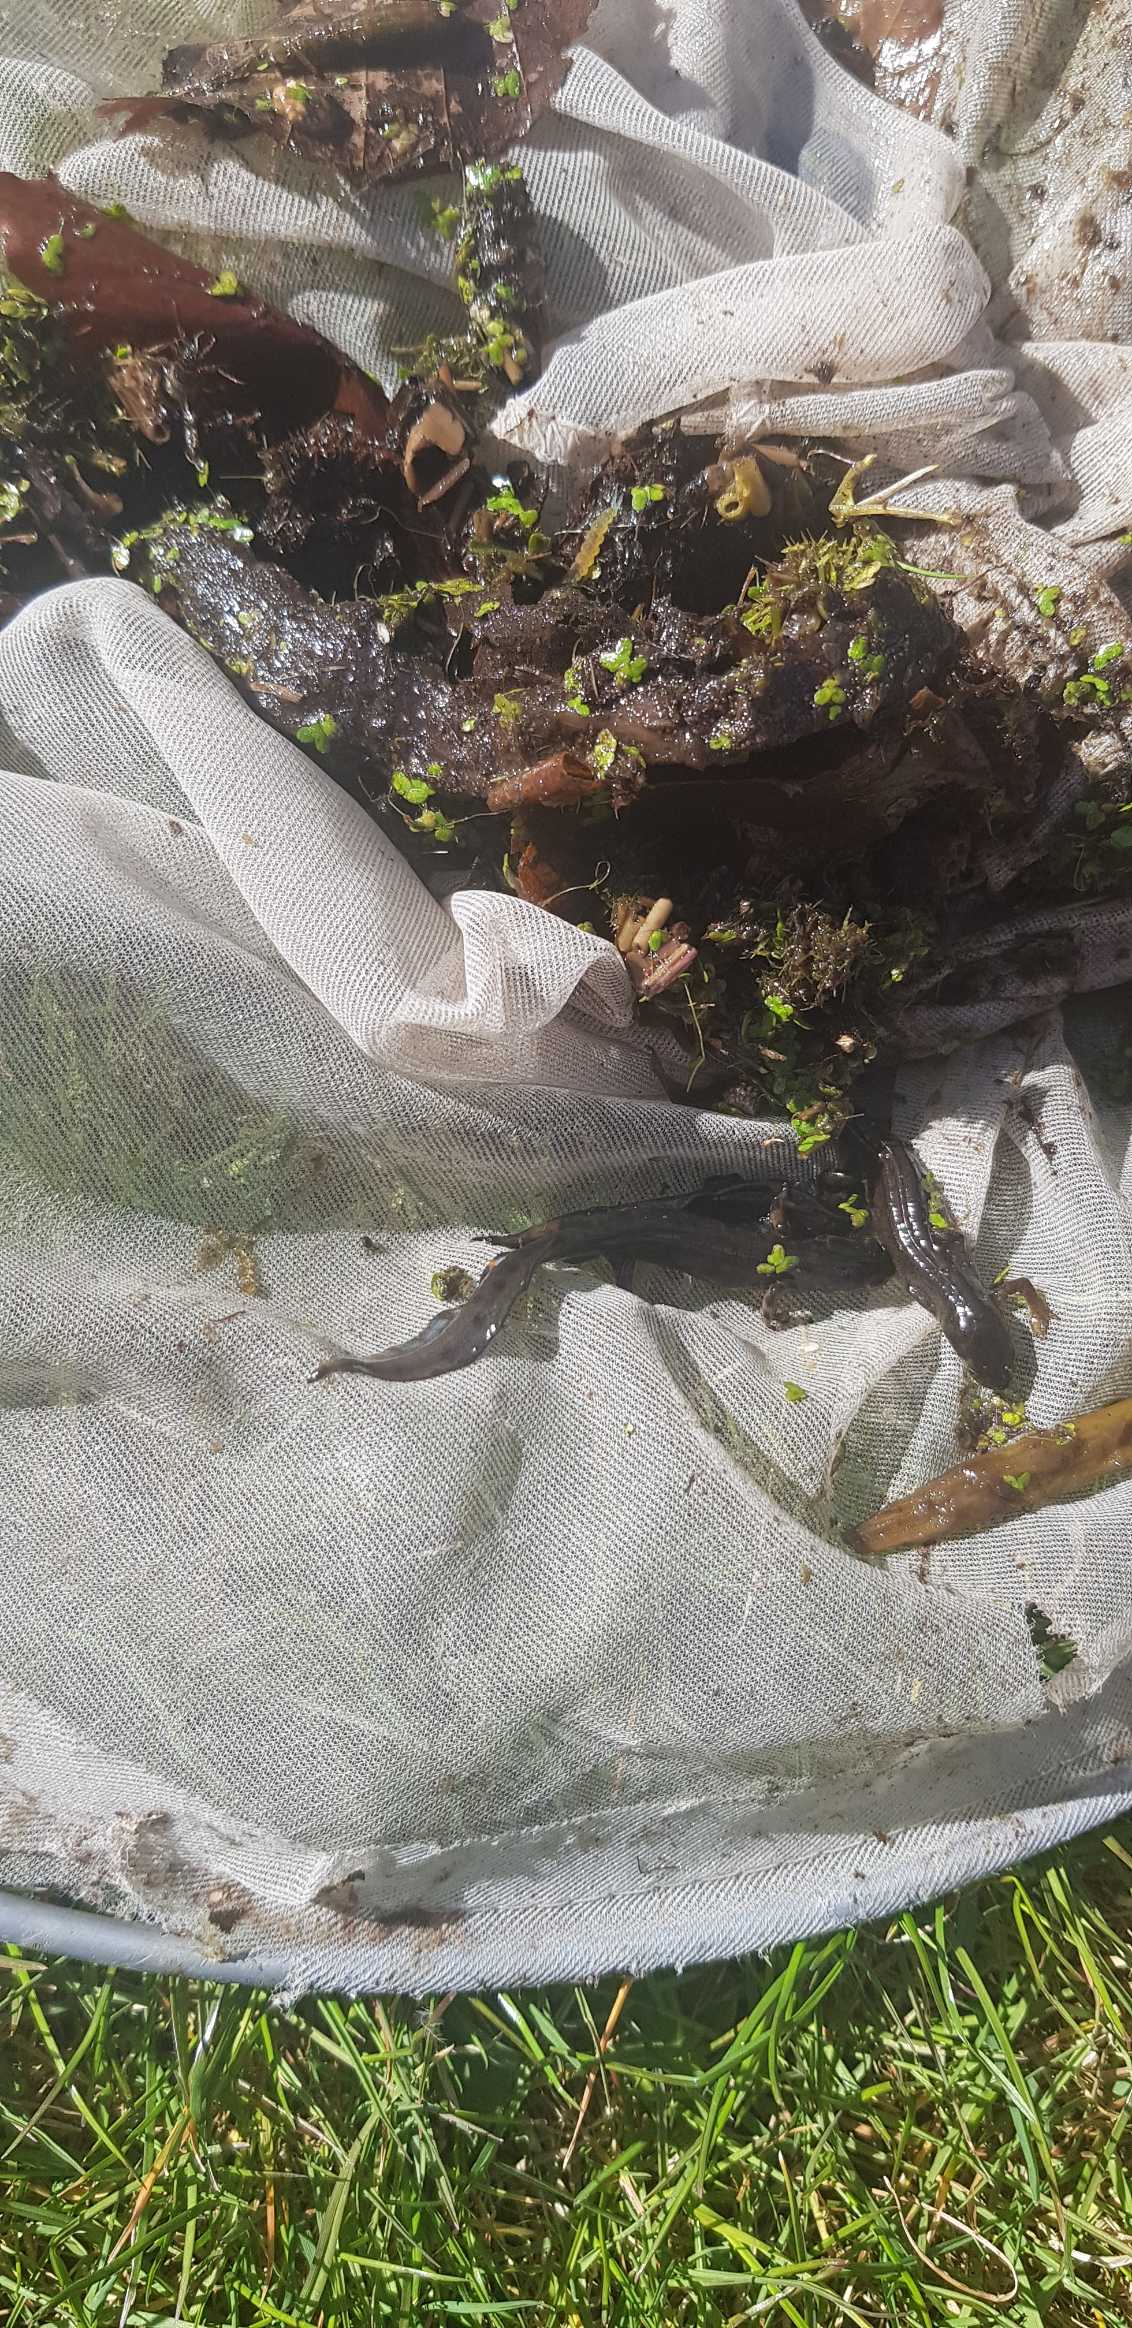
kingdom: Animalia
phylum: Chordata
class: Amphibia
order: Caudata
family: Salamandridae
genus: Lissotriton
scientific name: Lissotriton vulgaris
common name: Lille vandsalamander
